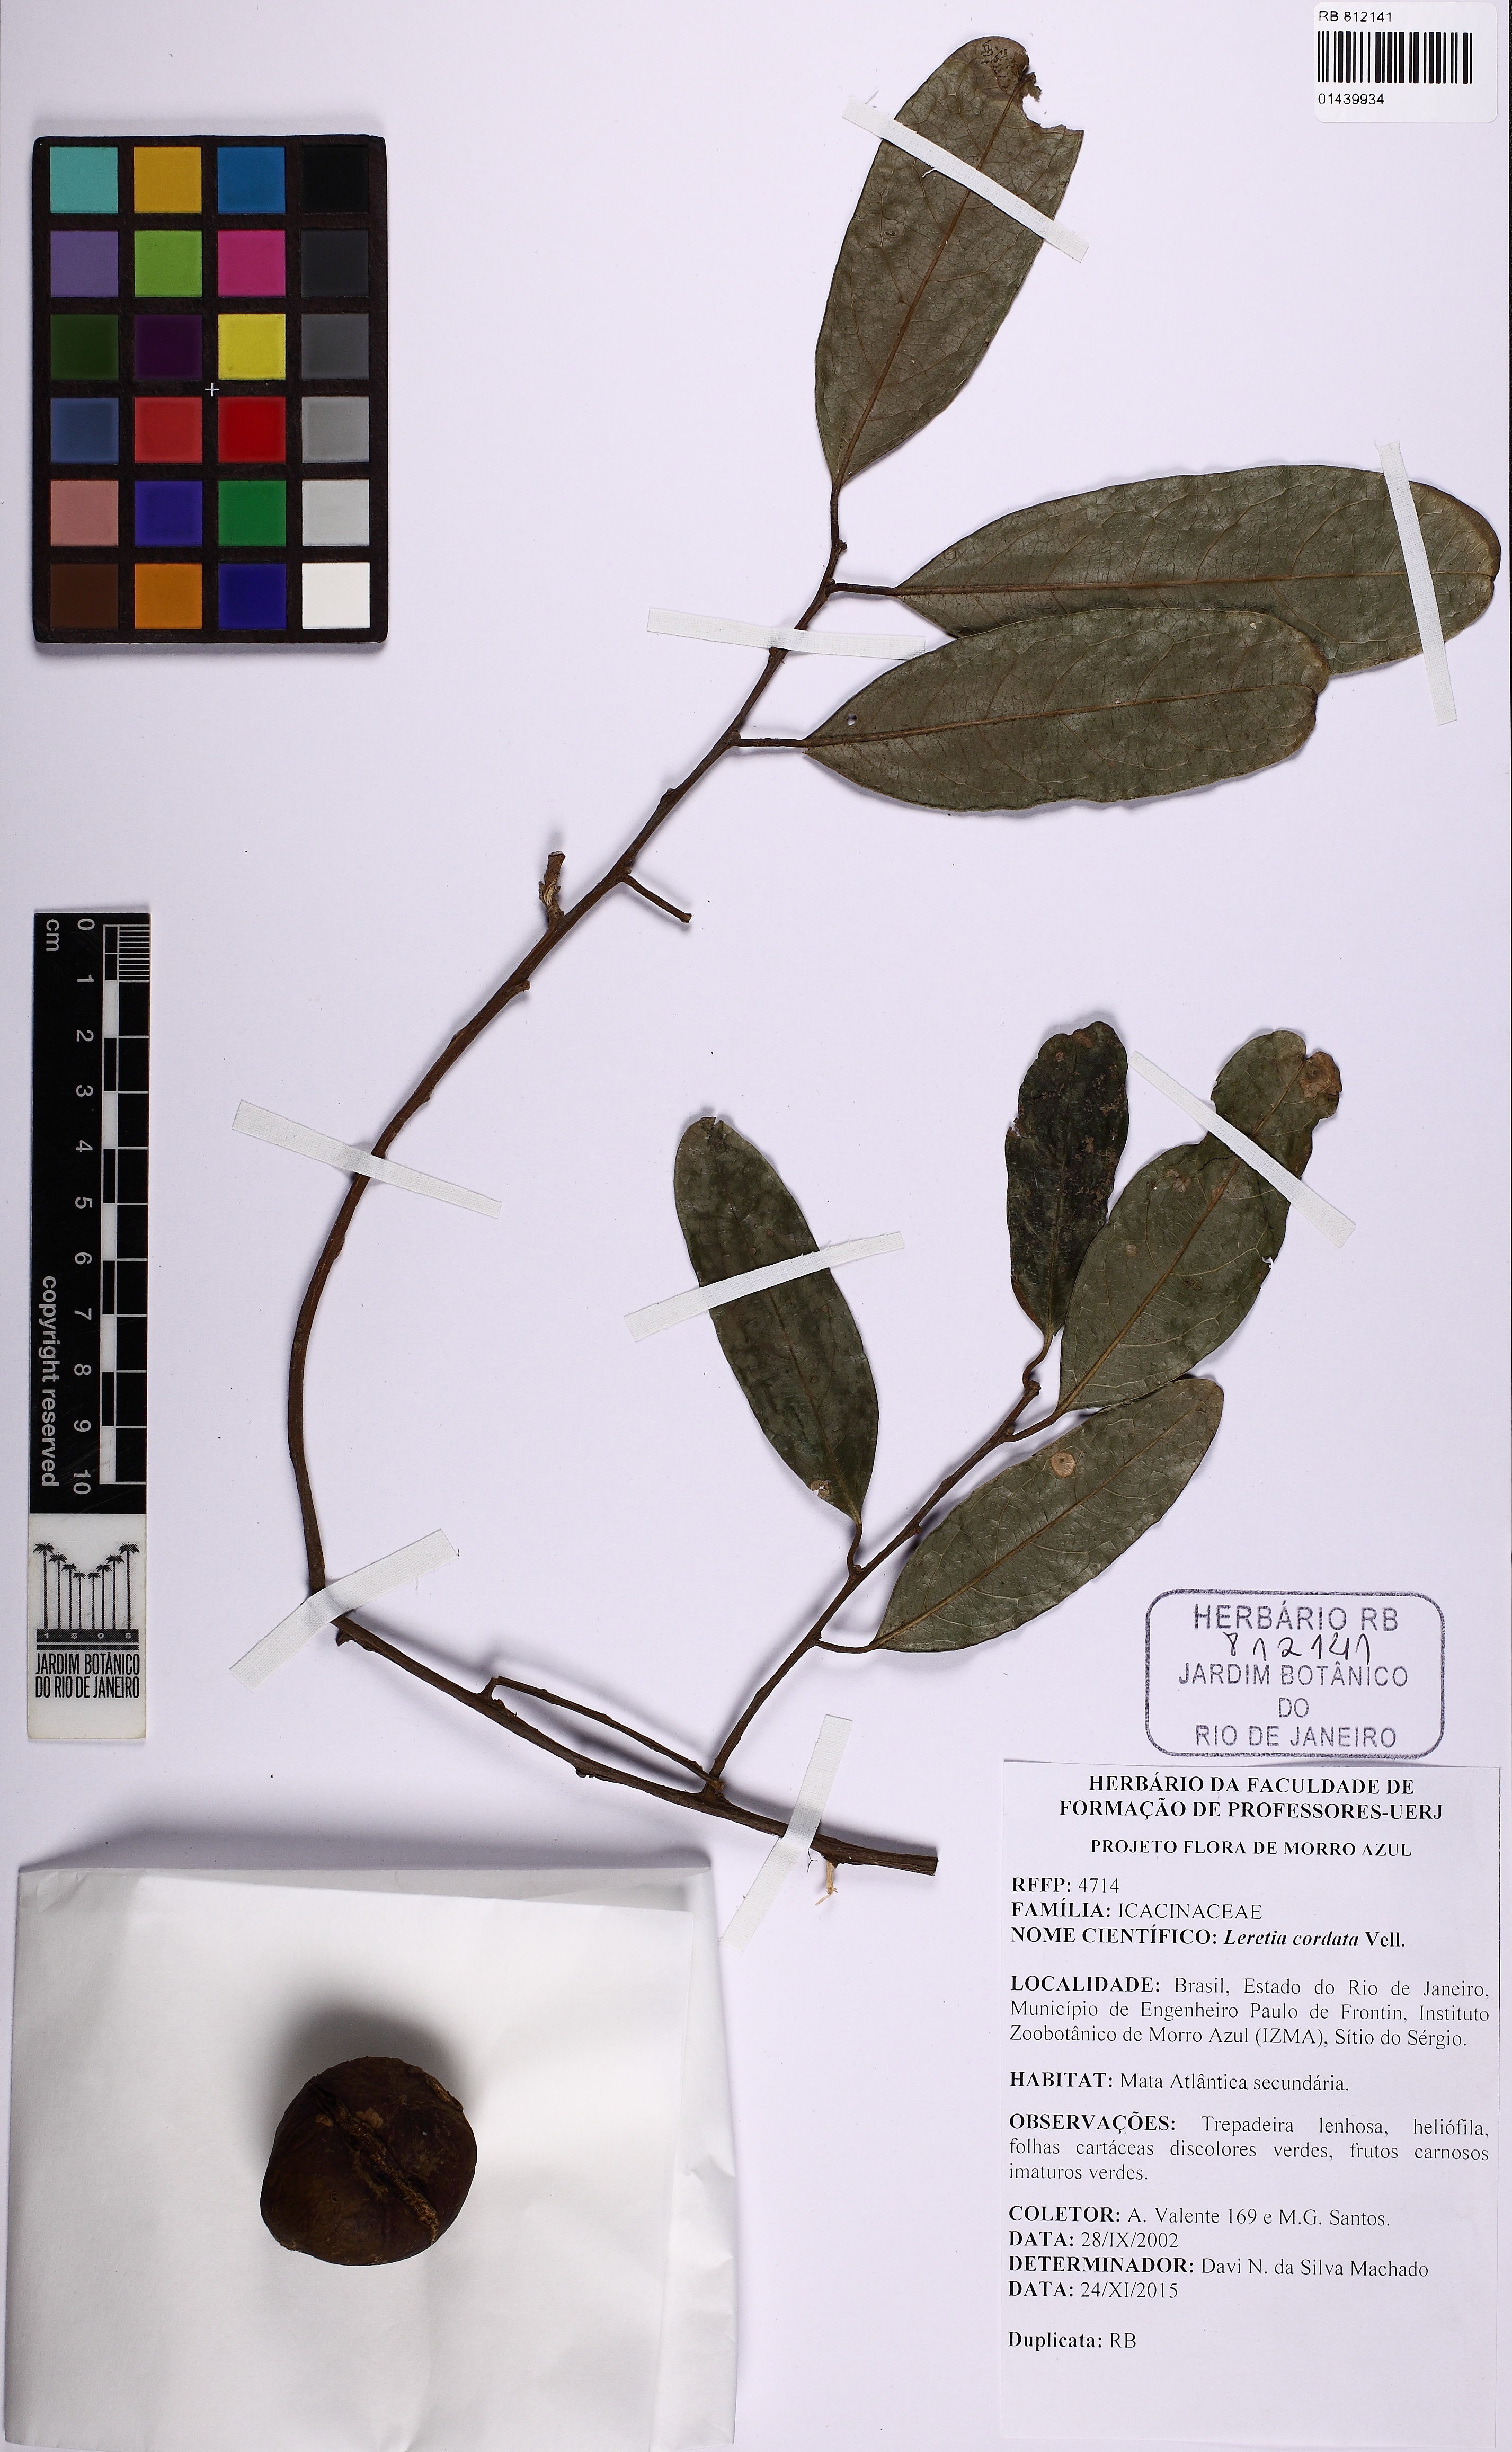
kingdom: Plantae
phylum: Tracheophyta
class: Magnoliopsida
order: Icacinales
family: Icacinaceae
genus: Leretia
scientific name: Leretia cordata
